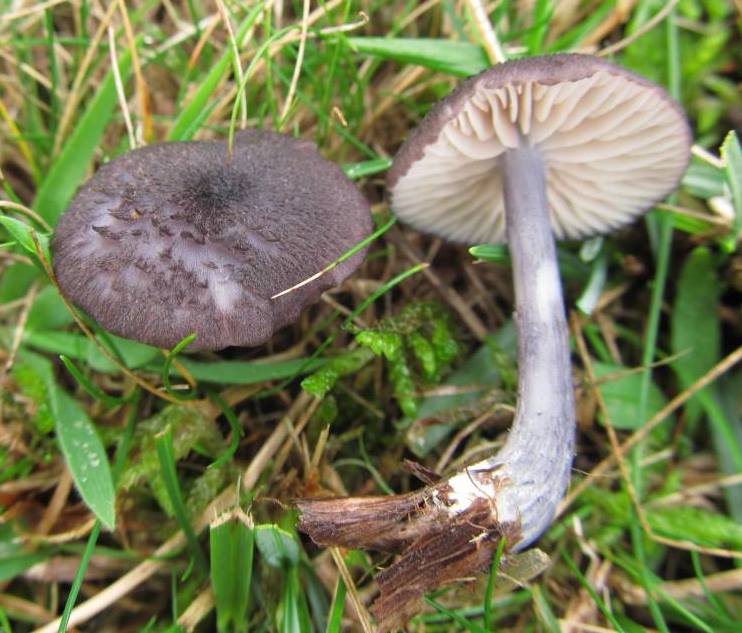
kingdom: Fungi
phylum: Basidiomycota
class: Agaricomycetes
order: Agaricales
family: Entolomataceae
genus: Entoloma
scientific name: Entoloma viiduense
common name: purpurbrun rødblad
